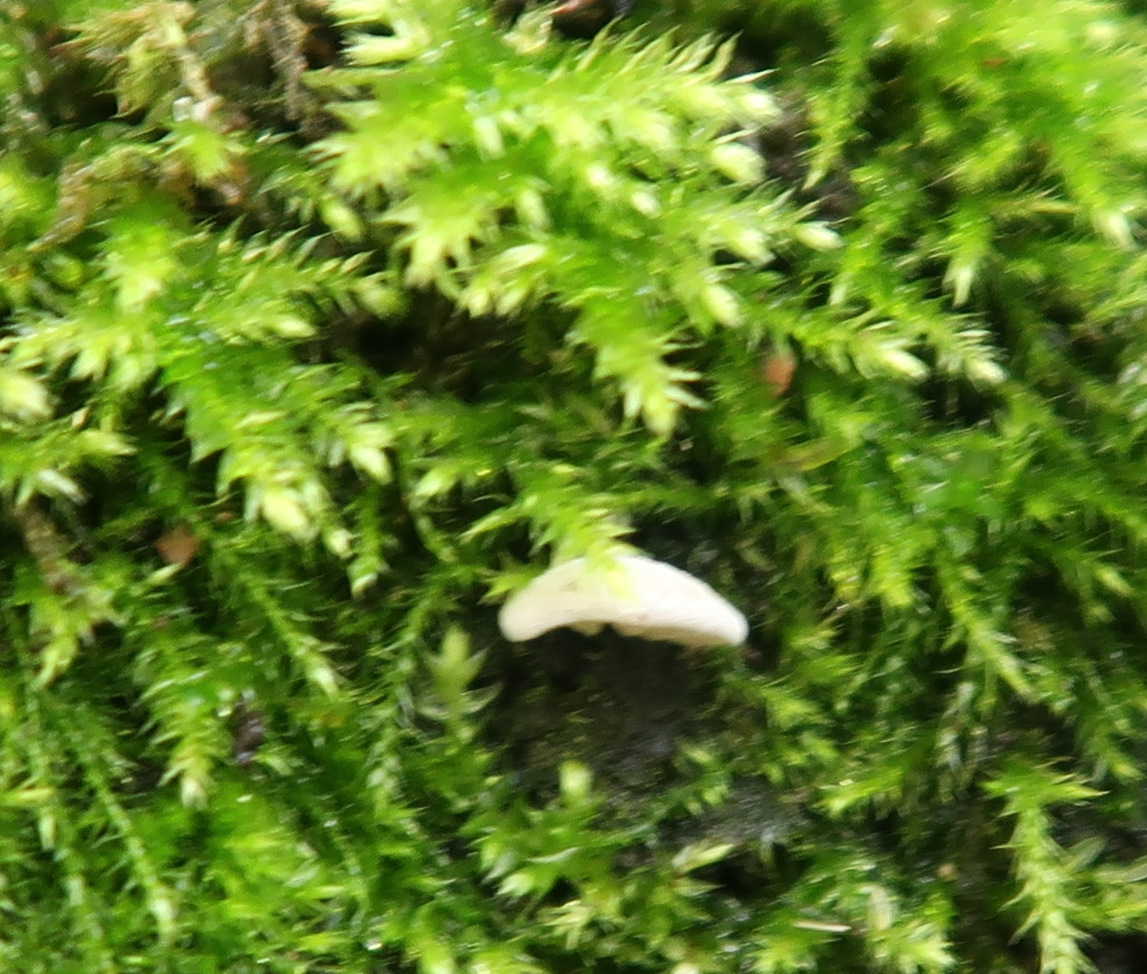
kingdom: Fungi
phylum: Basidiomycota
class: Agaricomycetes
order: Agaricales
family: Entolomataceae
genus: Clitopilus
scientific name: Clitopilus hobsonii
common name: Miller's oysterling
